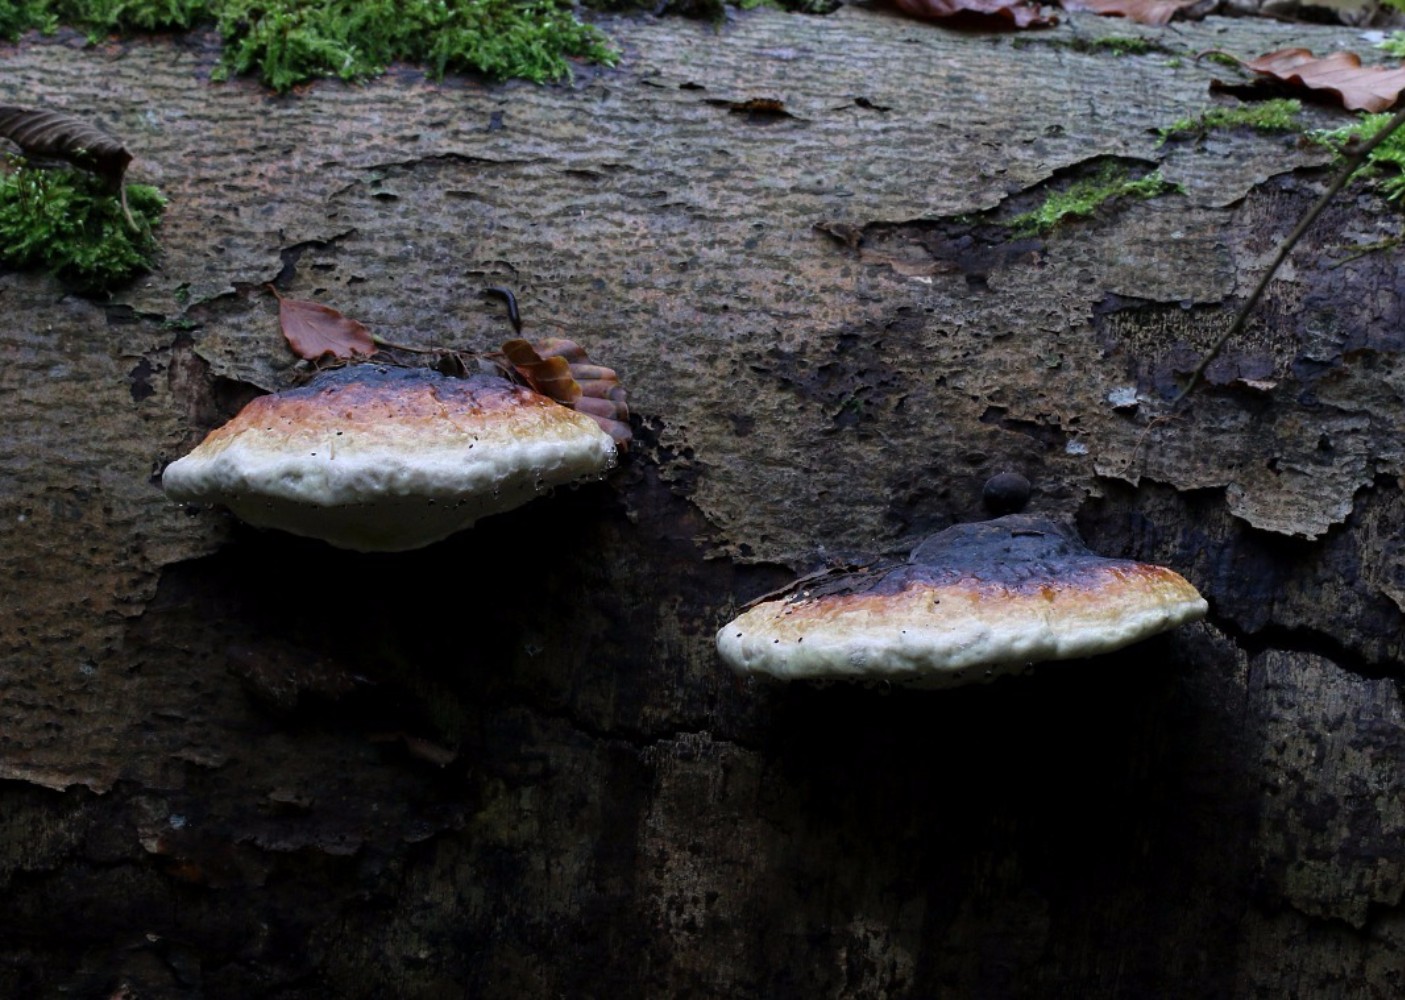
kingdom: Fungi
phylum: Basidiomycota
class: Agaricomycetes
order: Polyporales
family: Fomitopsidaceae
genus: Fomitopsis
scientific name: Fomitopsis pinicola
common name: randbæltet hovporesvamp
